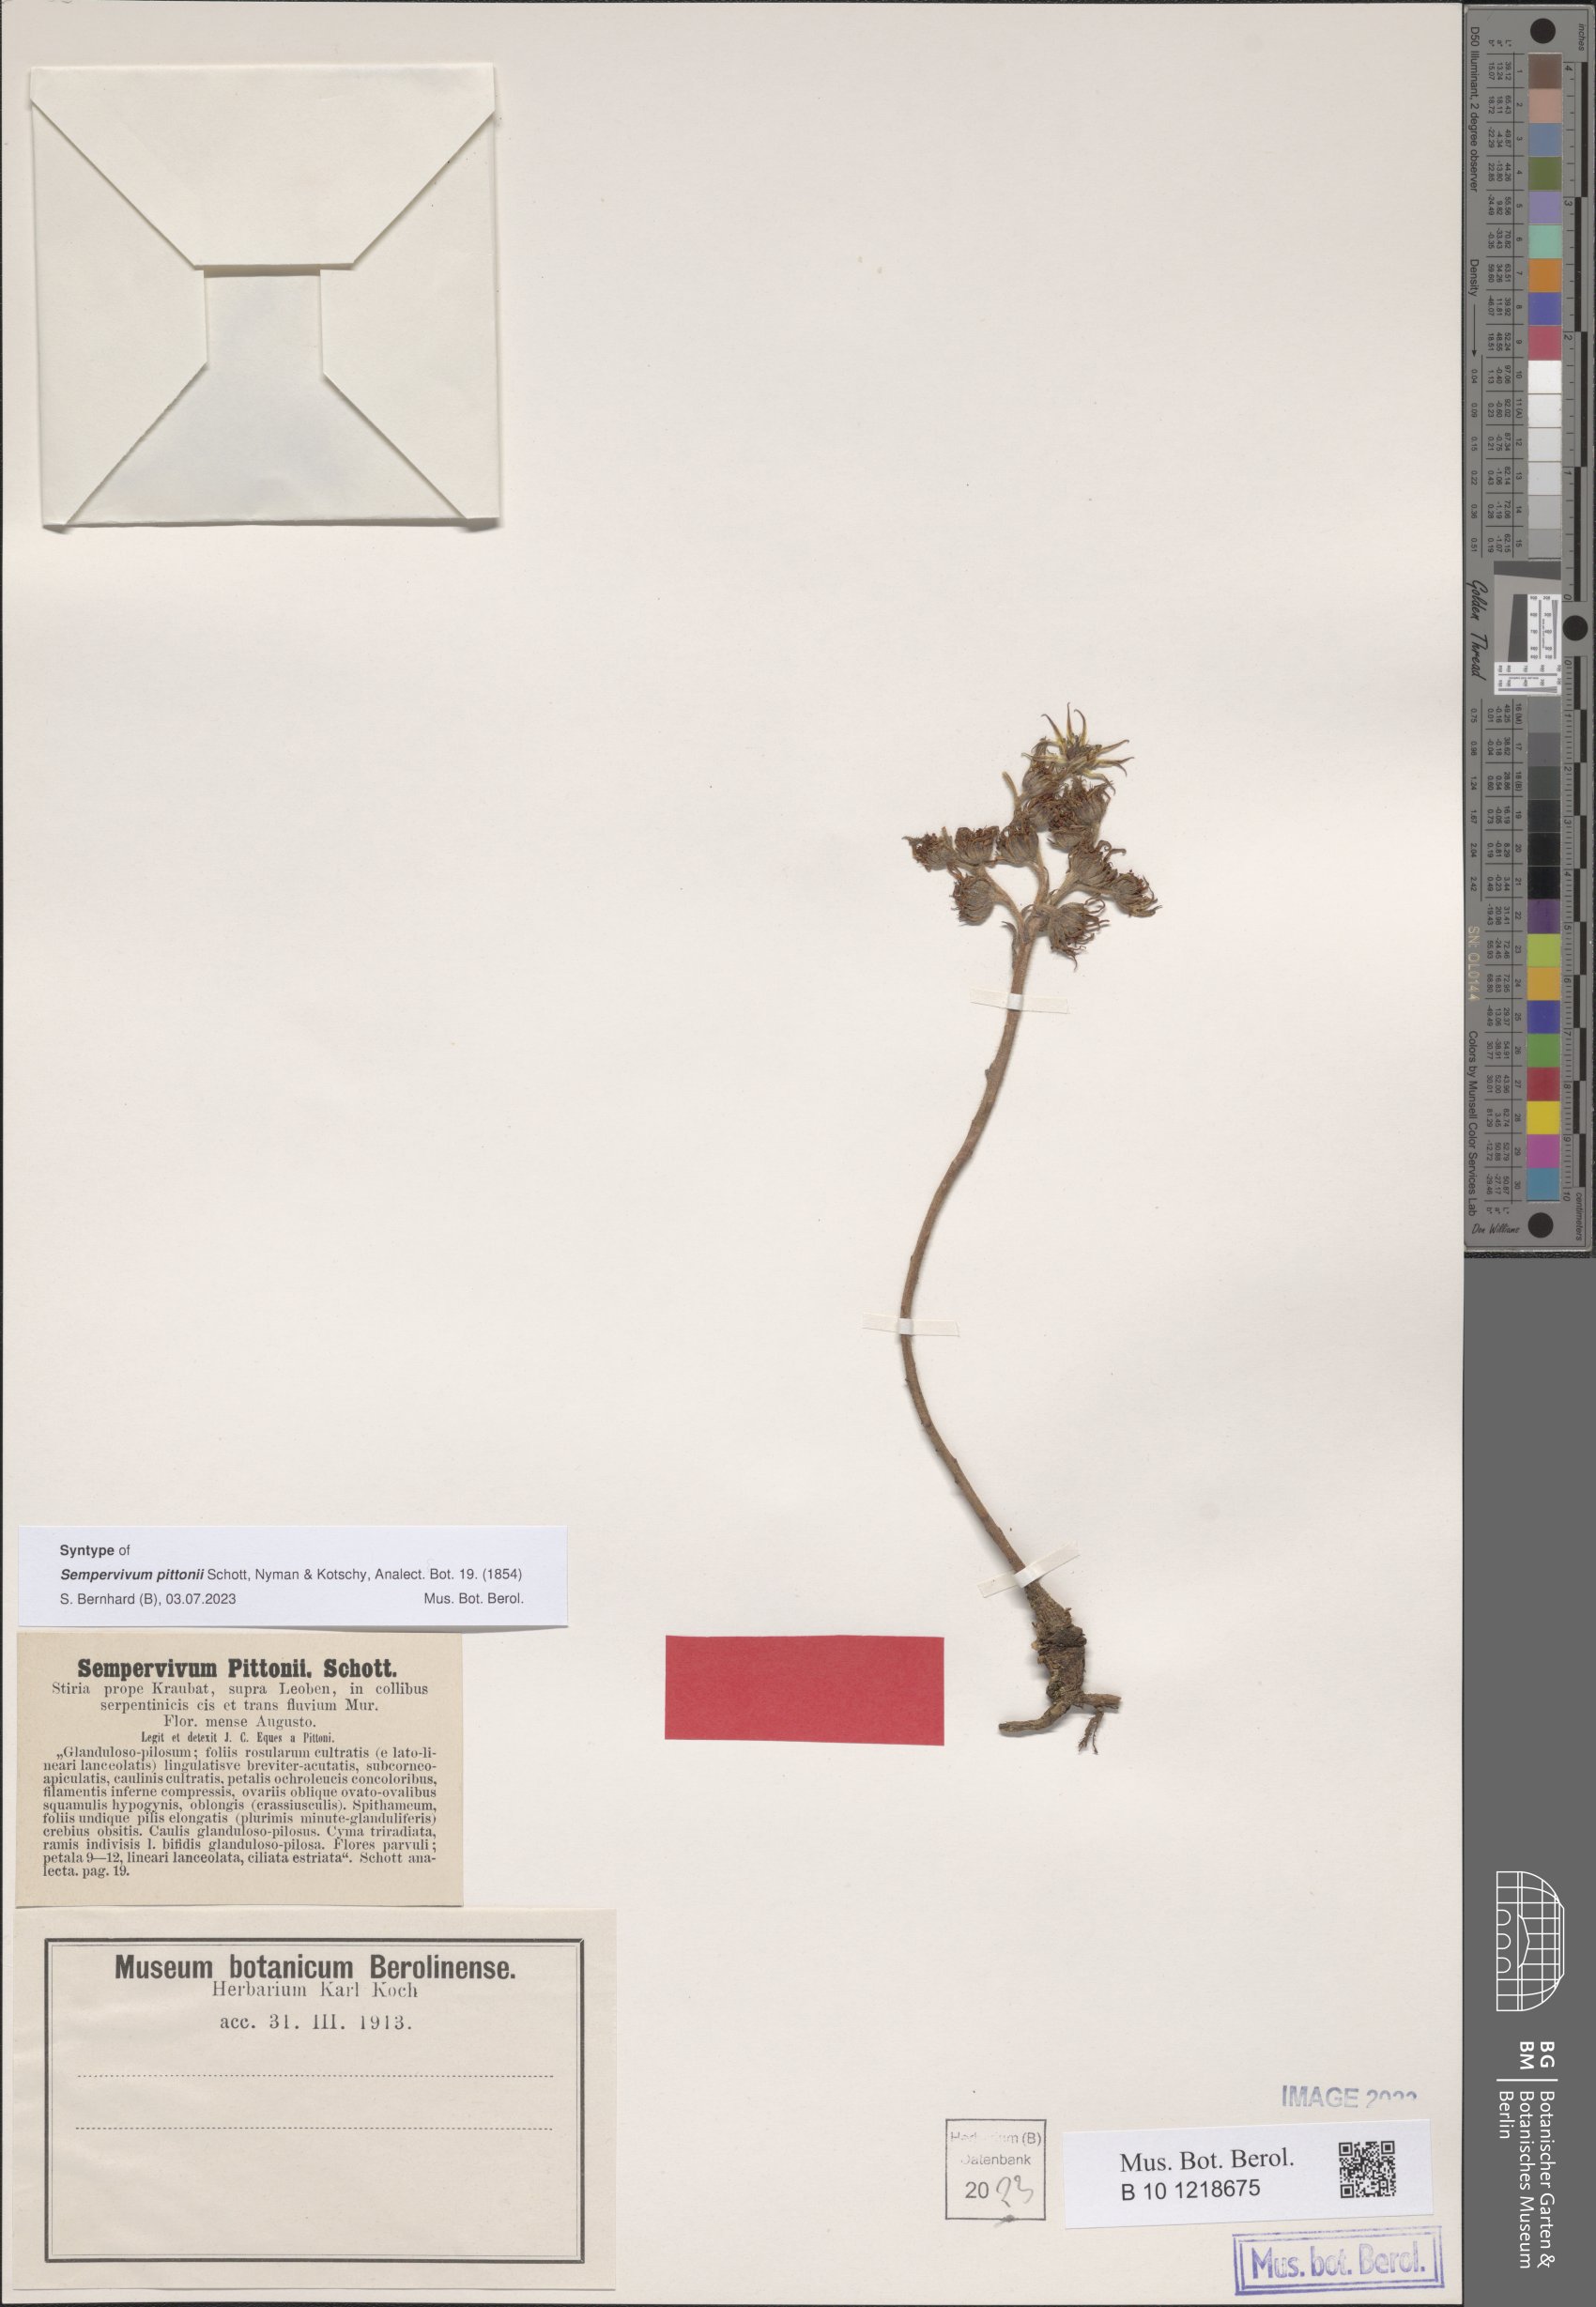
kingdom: Plantae
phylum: Tracheophyta
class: Magnoliopsida
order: Saxifragales
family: Crassulaceae
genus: Sempervivum
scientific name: Sempervivum pittonii
